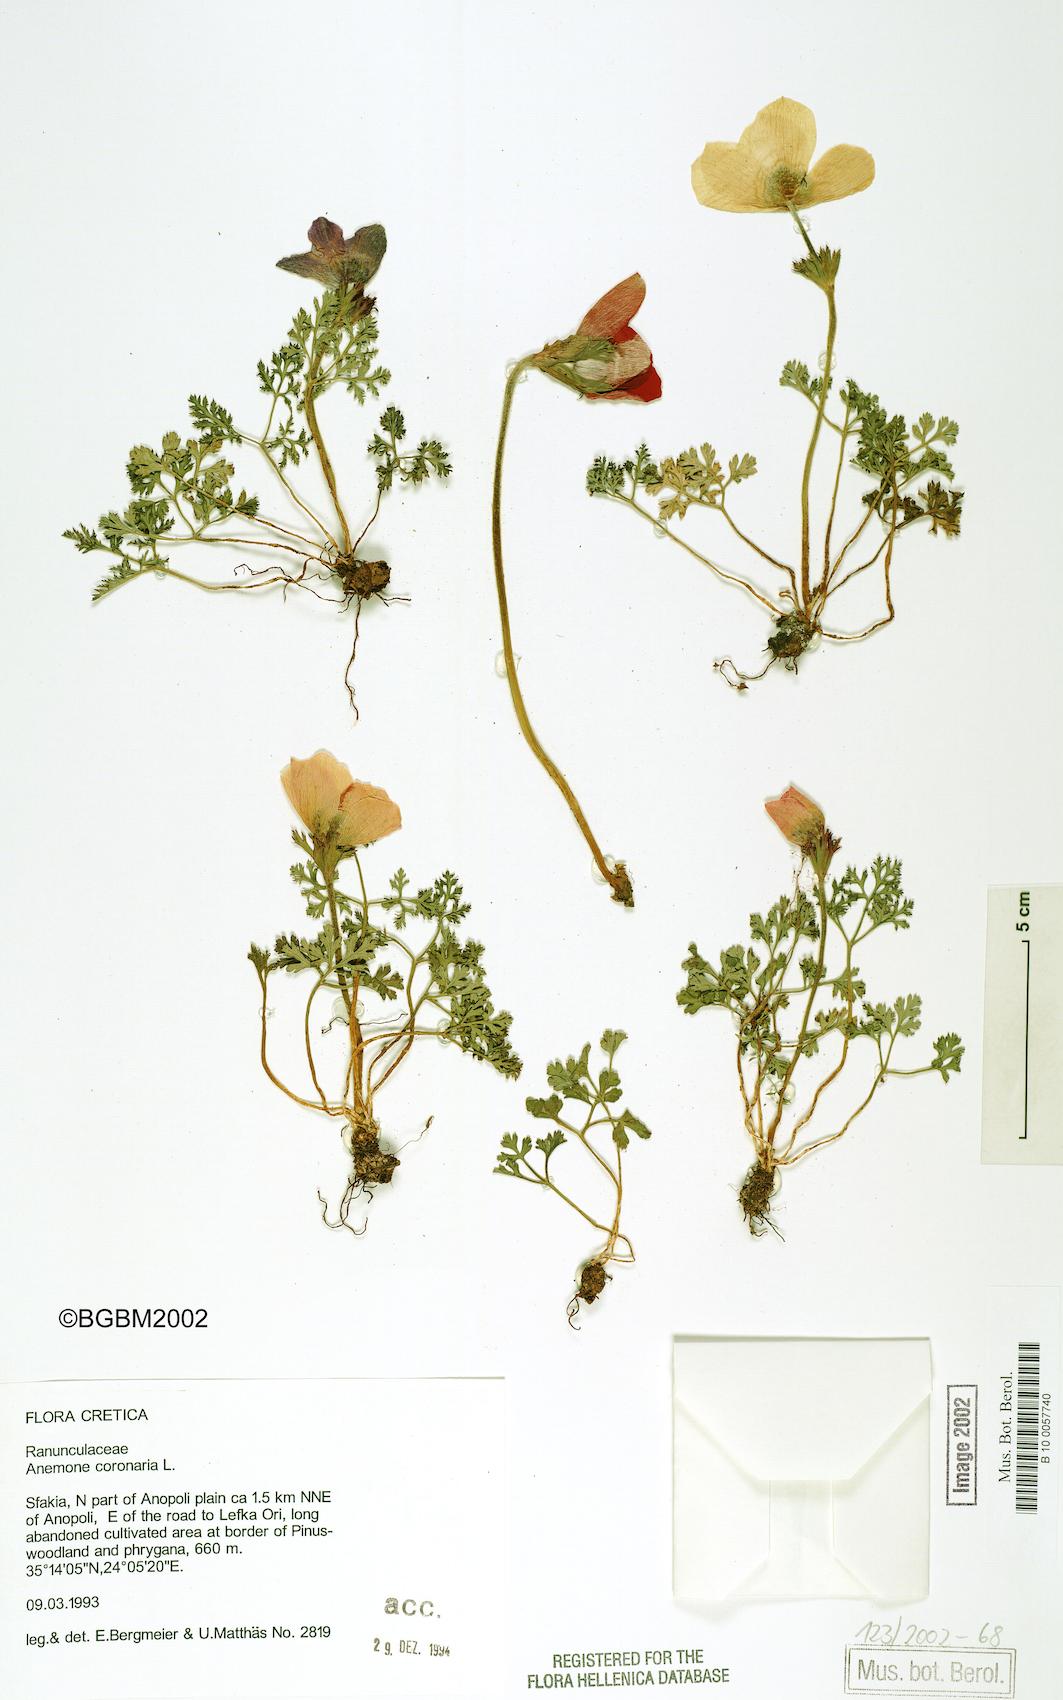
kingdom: Plantae
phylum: Tracheophyta
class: Magnoliopsida
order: Ranunculales
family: Ranunculaceae
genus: Anemone
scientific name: Anemone coronaria
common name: Poppy anemone
